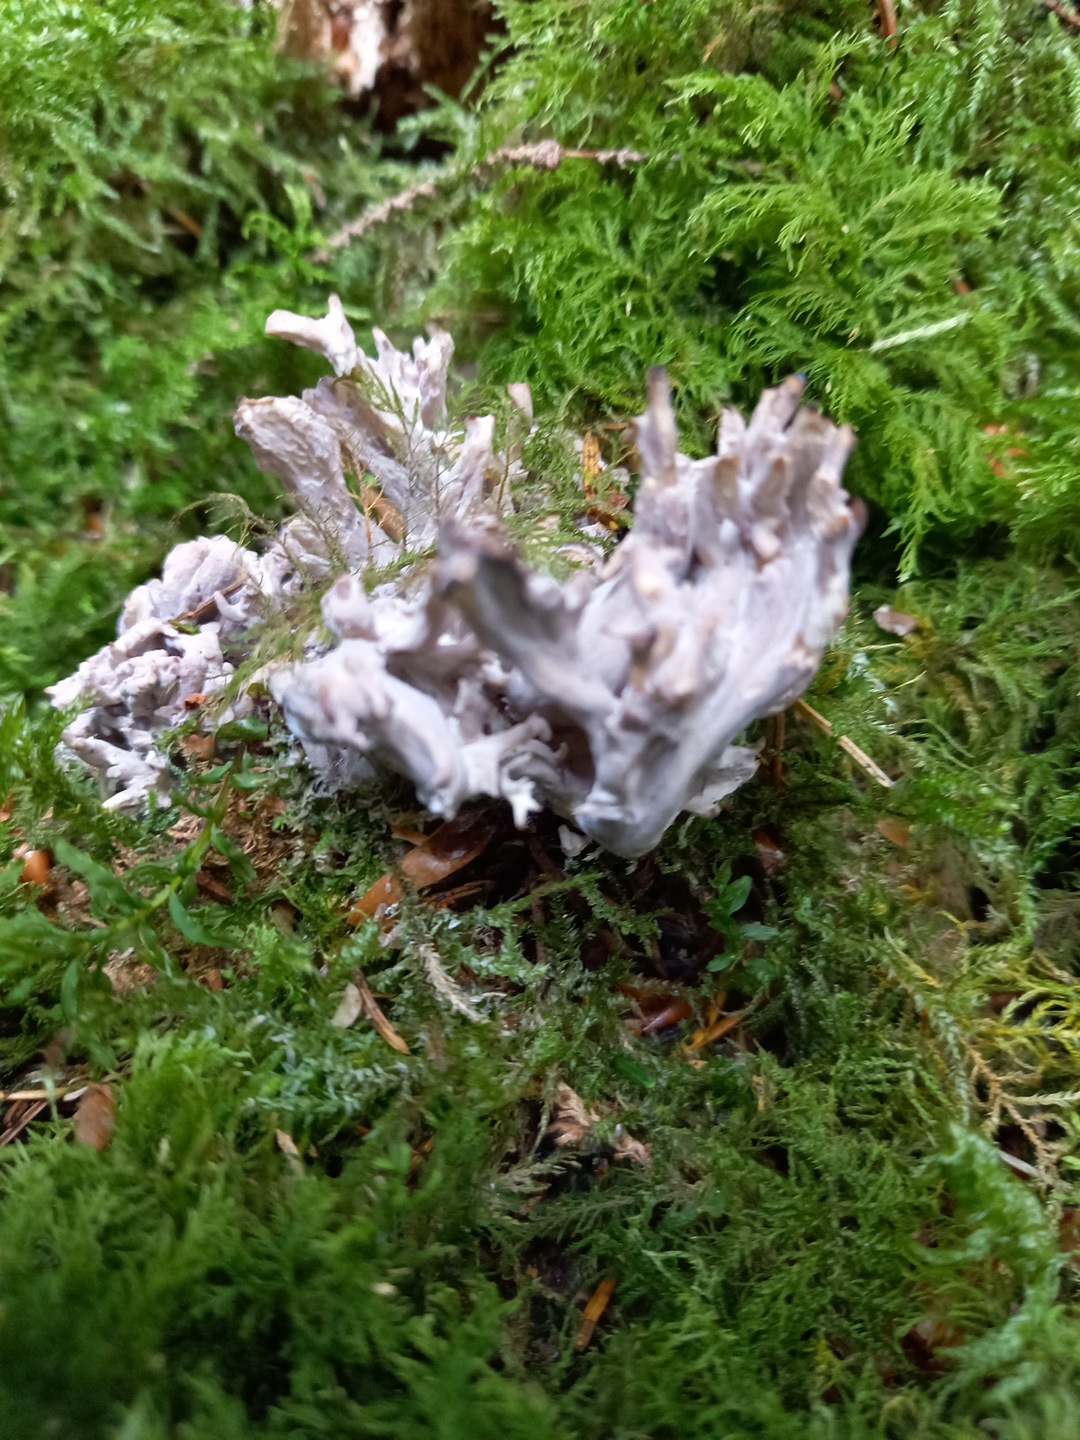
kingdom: Fungi
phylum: Basidiomycota
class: Agaricomycetes
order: Cantharellales
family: Hydnaceae
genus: Clavulina
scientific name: Clavulina
